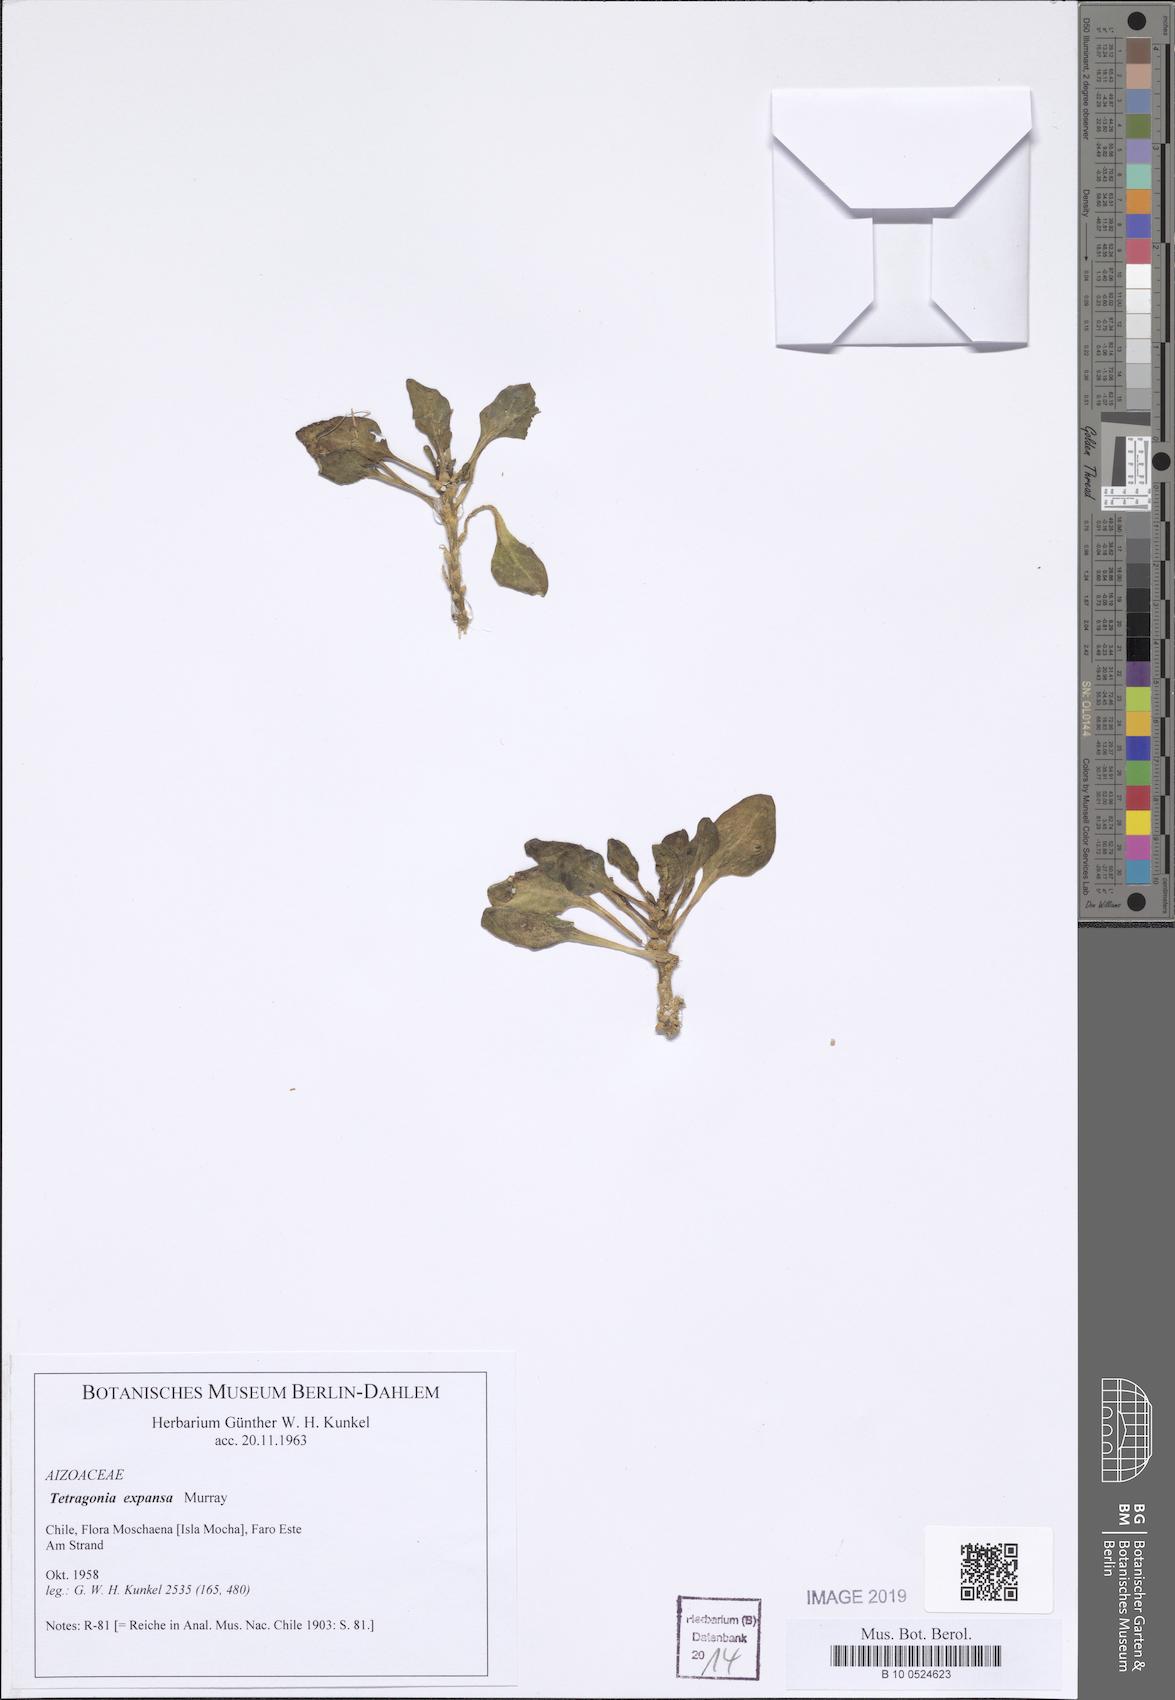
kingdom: Plantae
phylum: Tracheophyta
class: Magnoliopsida
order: Caryophyllales
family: Aizoaceae
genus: Tetragonia
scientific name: Tetragonia tetragonoides
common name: New zealand-spinach
